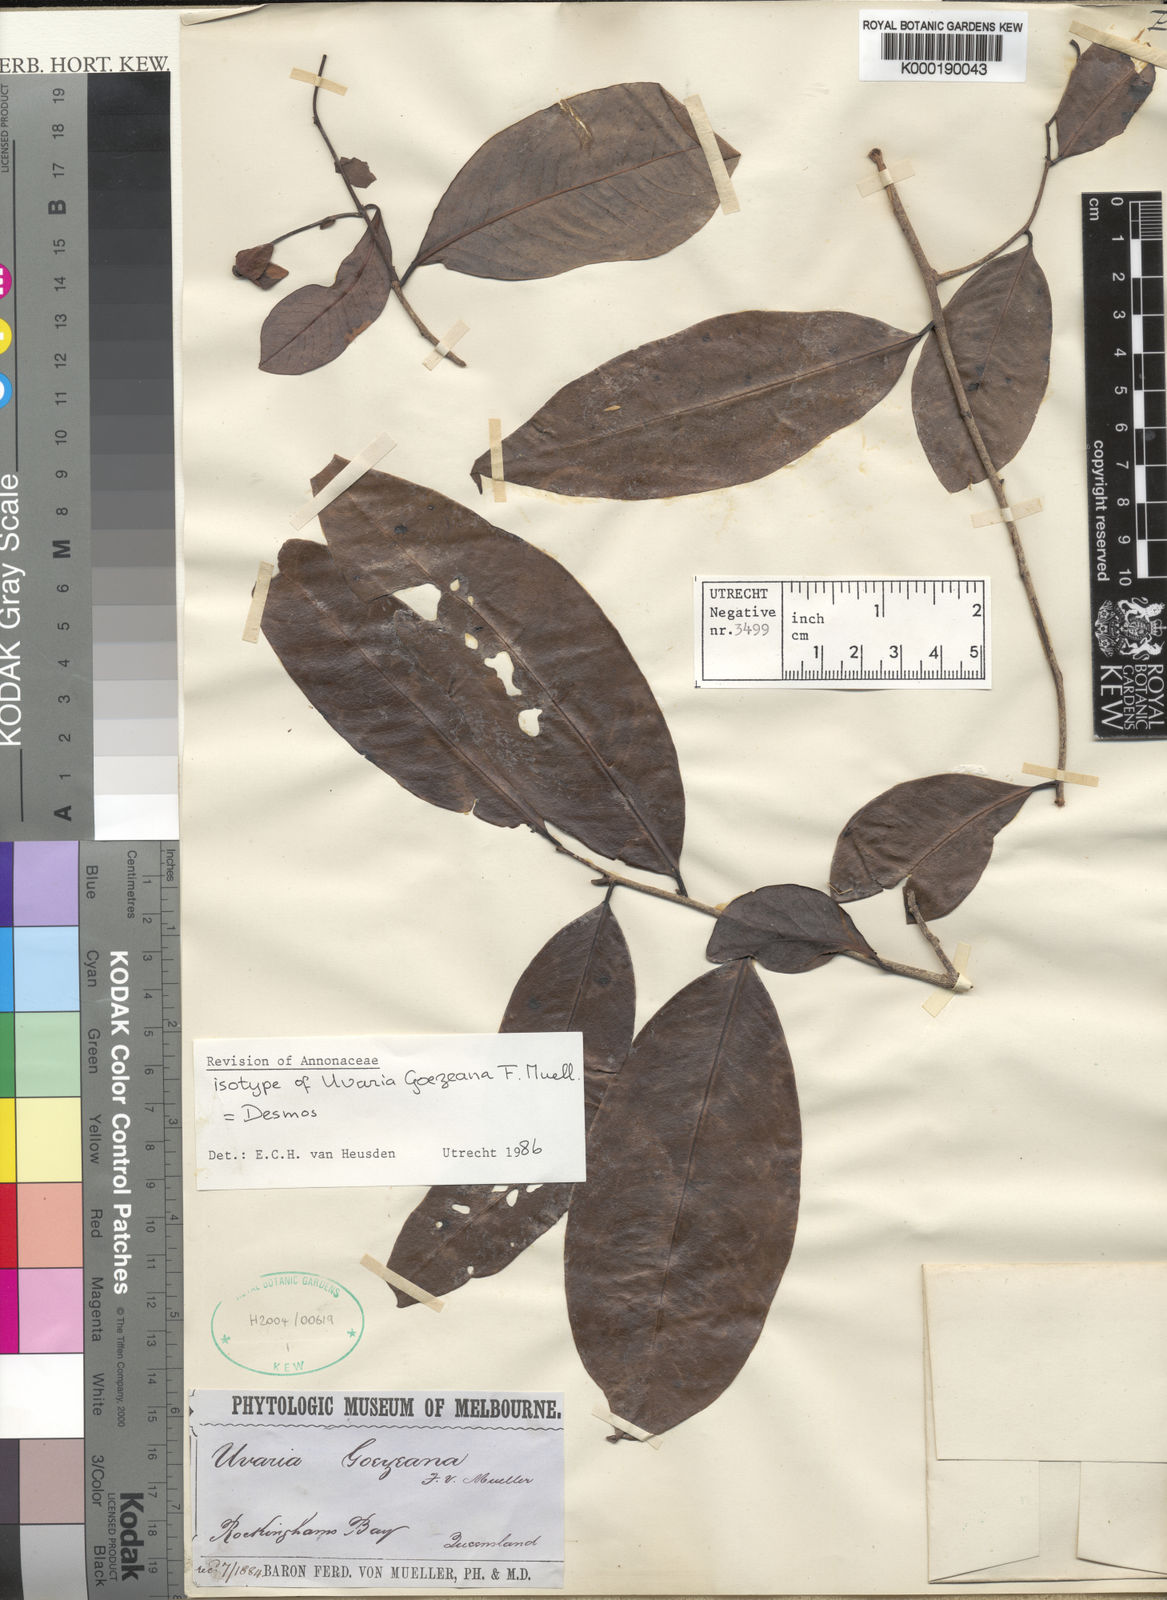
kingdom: Plantae
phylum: Tracheophyta
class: Magnoliopsida
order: Magnoliales
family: Annonaceae
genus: Desmos
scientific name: Desmos goezeanus
